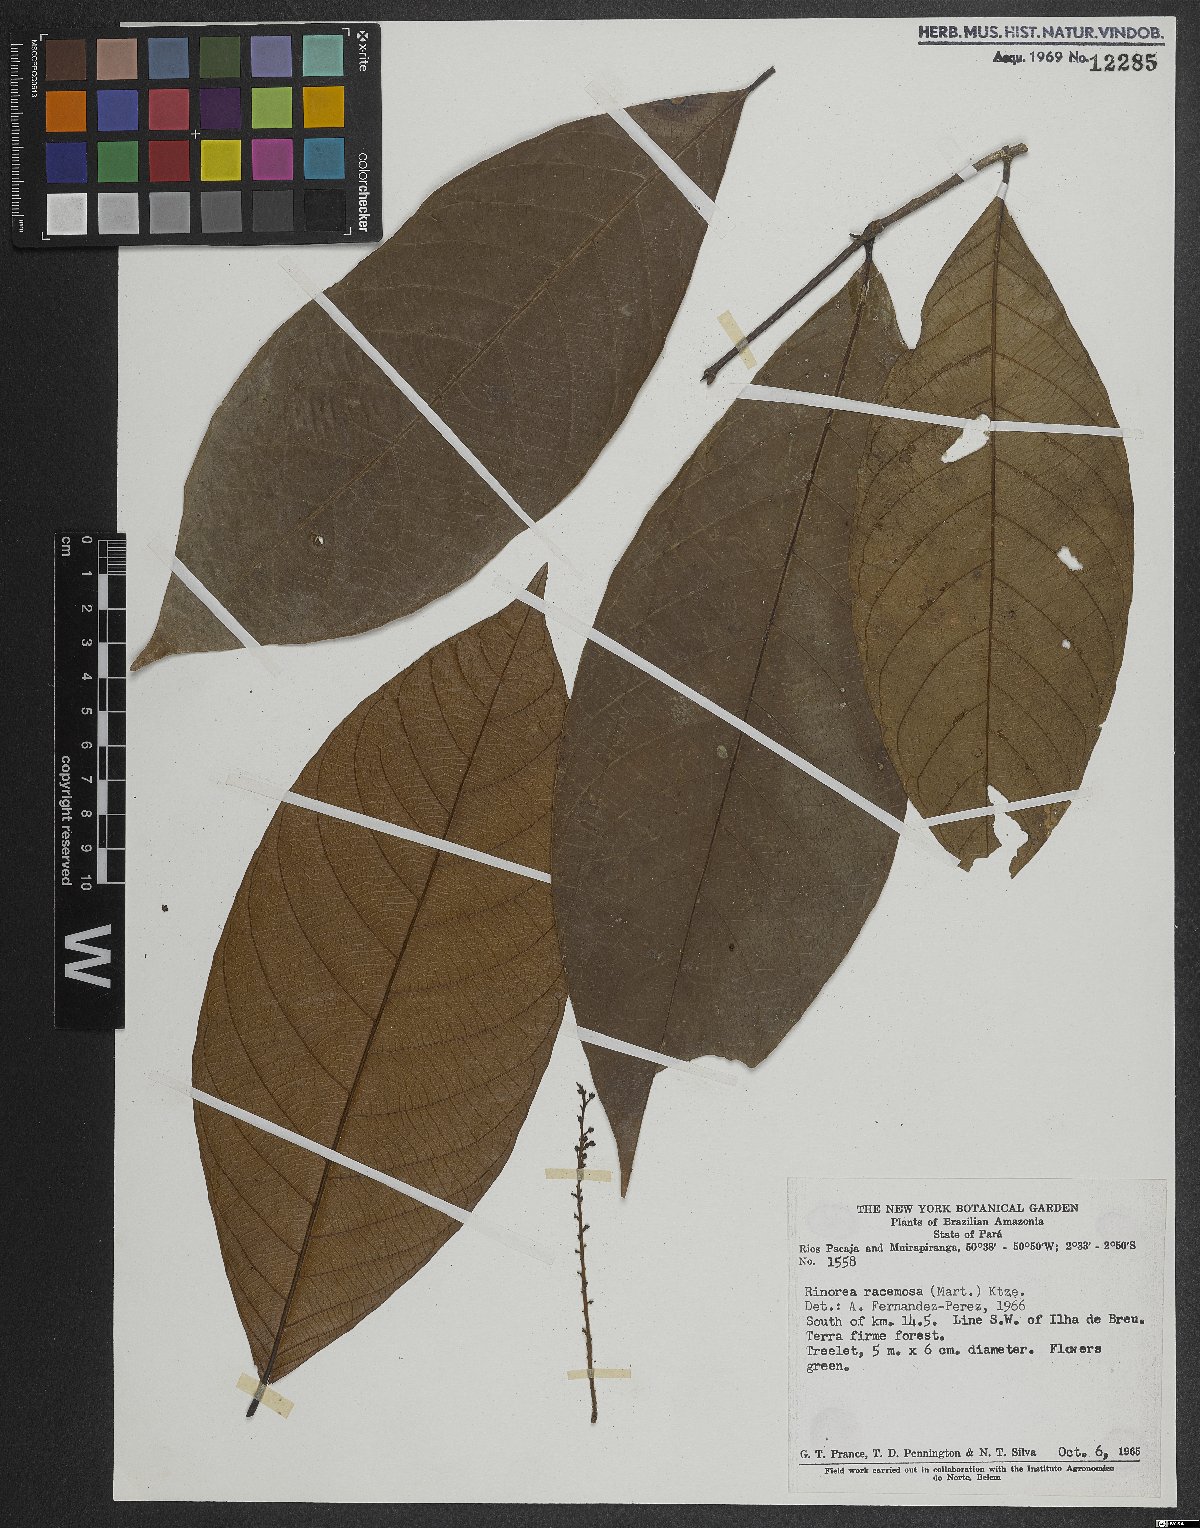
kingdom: Plantae
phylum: Tracheophyta
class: Magnoliopsida
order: Malpighiales
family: Violaceae
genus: Rinorea
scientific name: Rinorea racemosa
